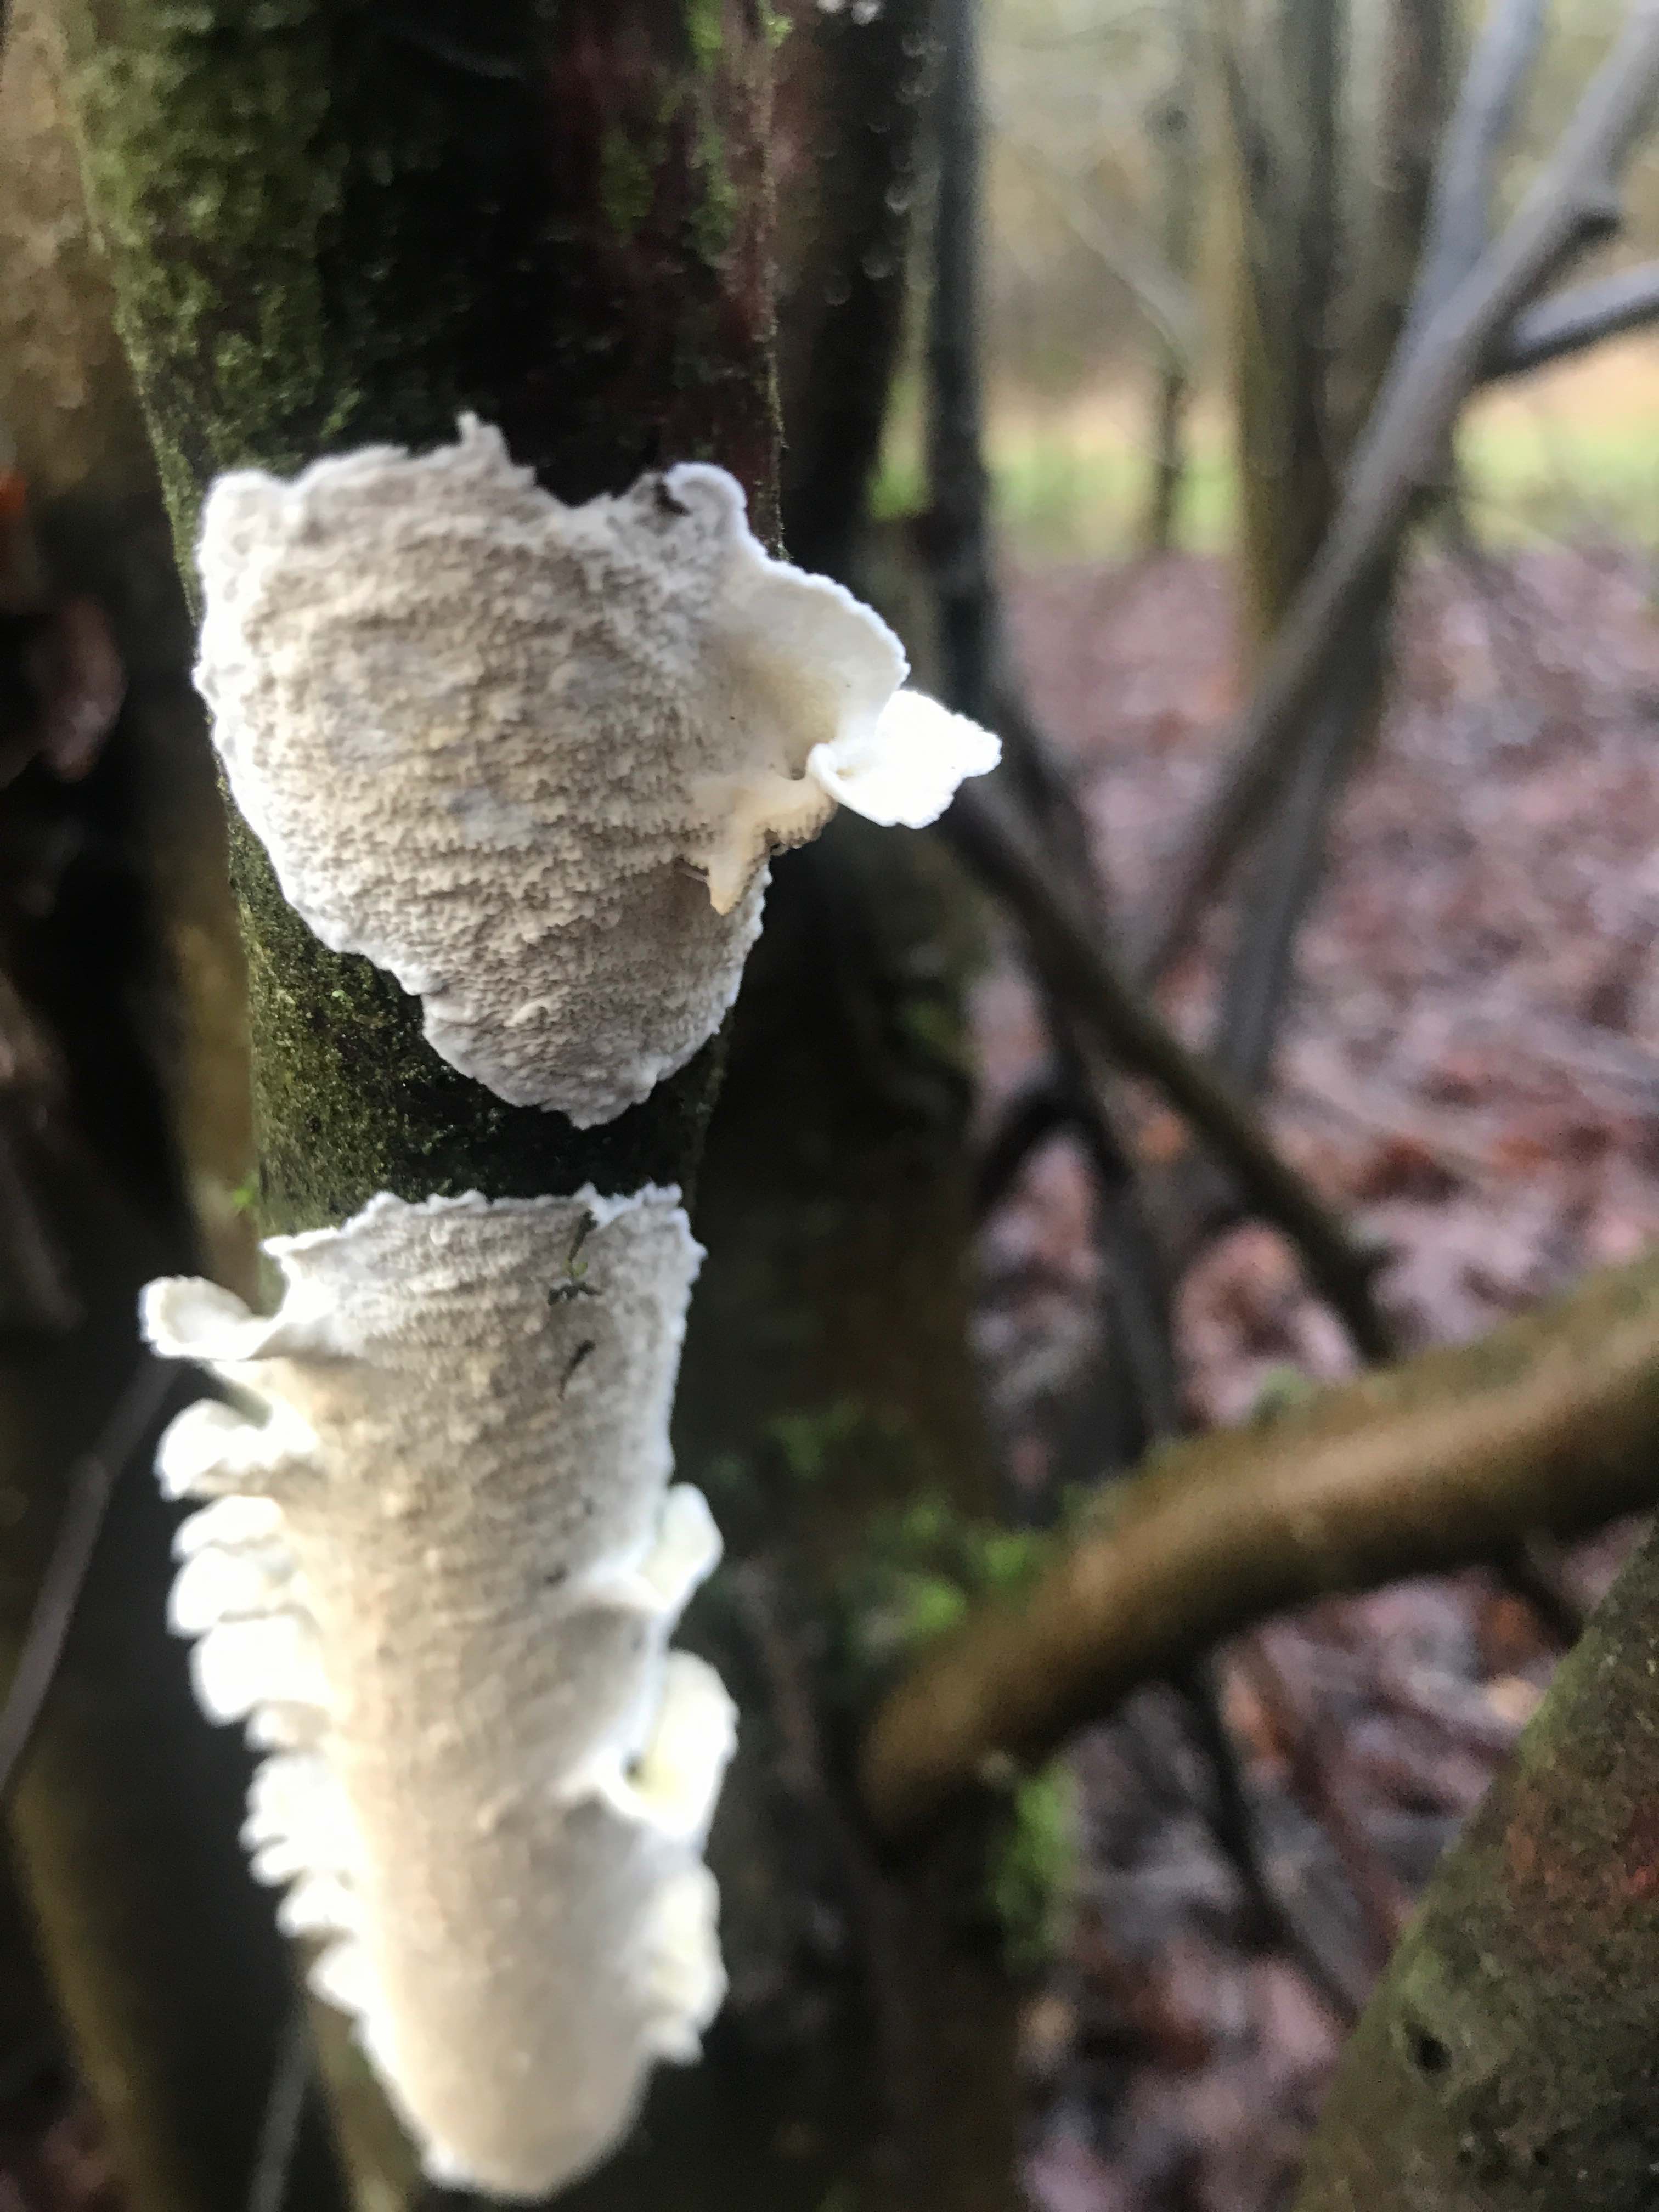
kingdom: Fungi
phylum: Basidiomycota
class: Agaricomycetes
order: Polyporales
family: Irpicaceae
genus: Byssomerulius
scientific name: Byssomerulius corium
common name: læder-åresvamp
